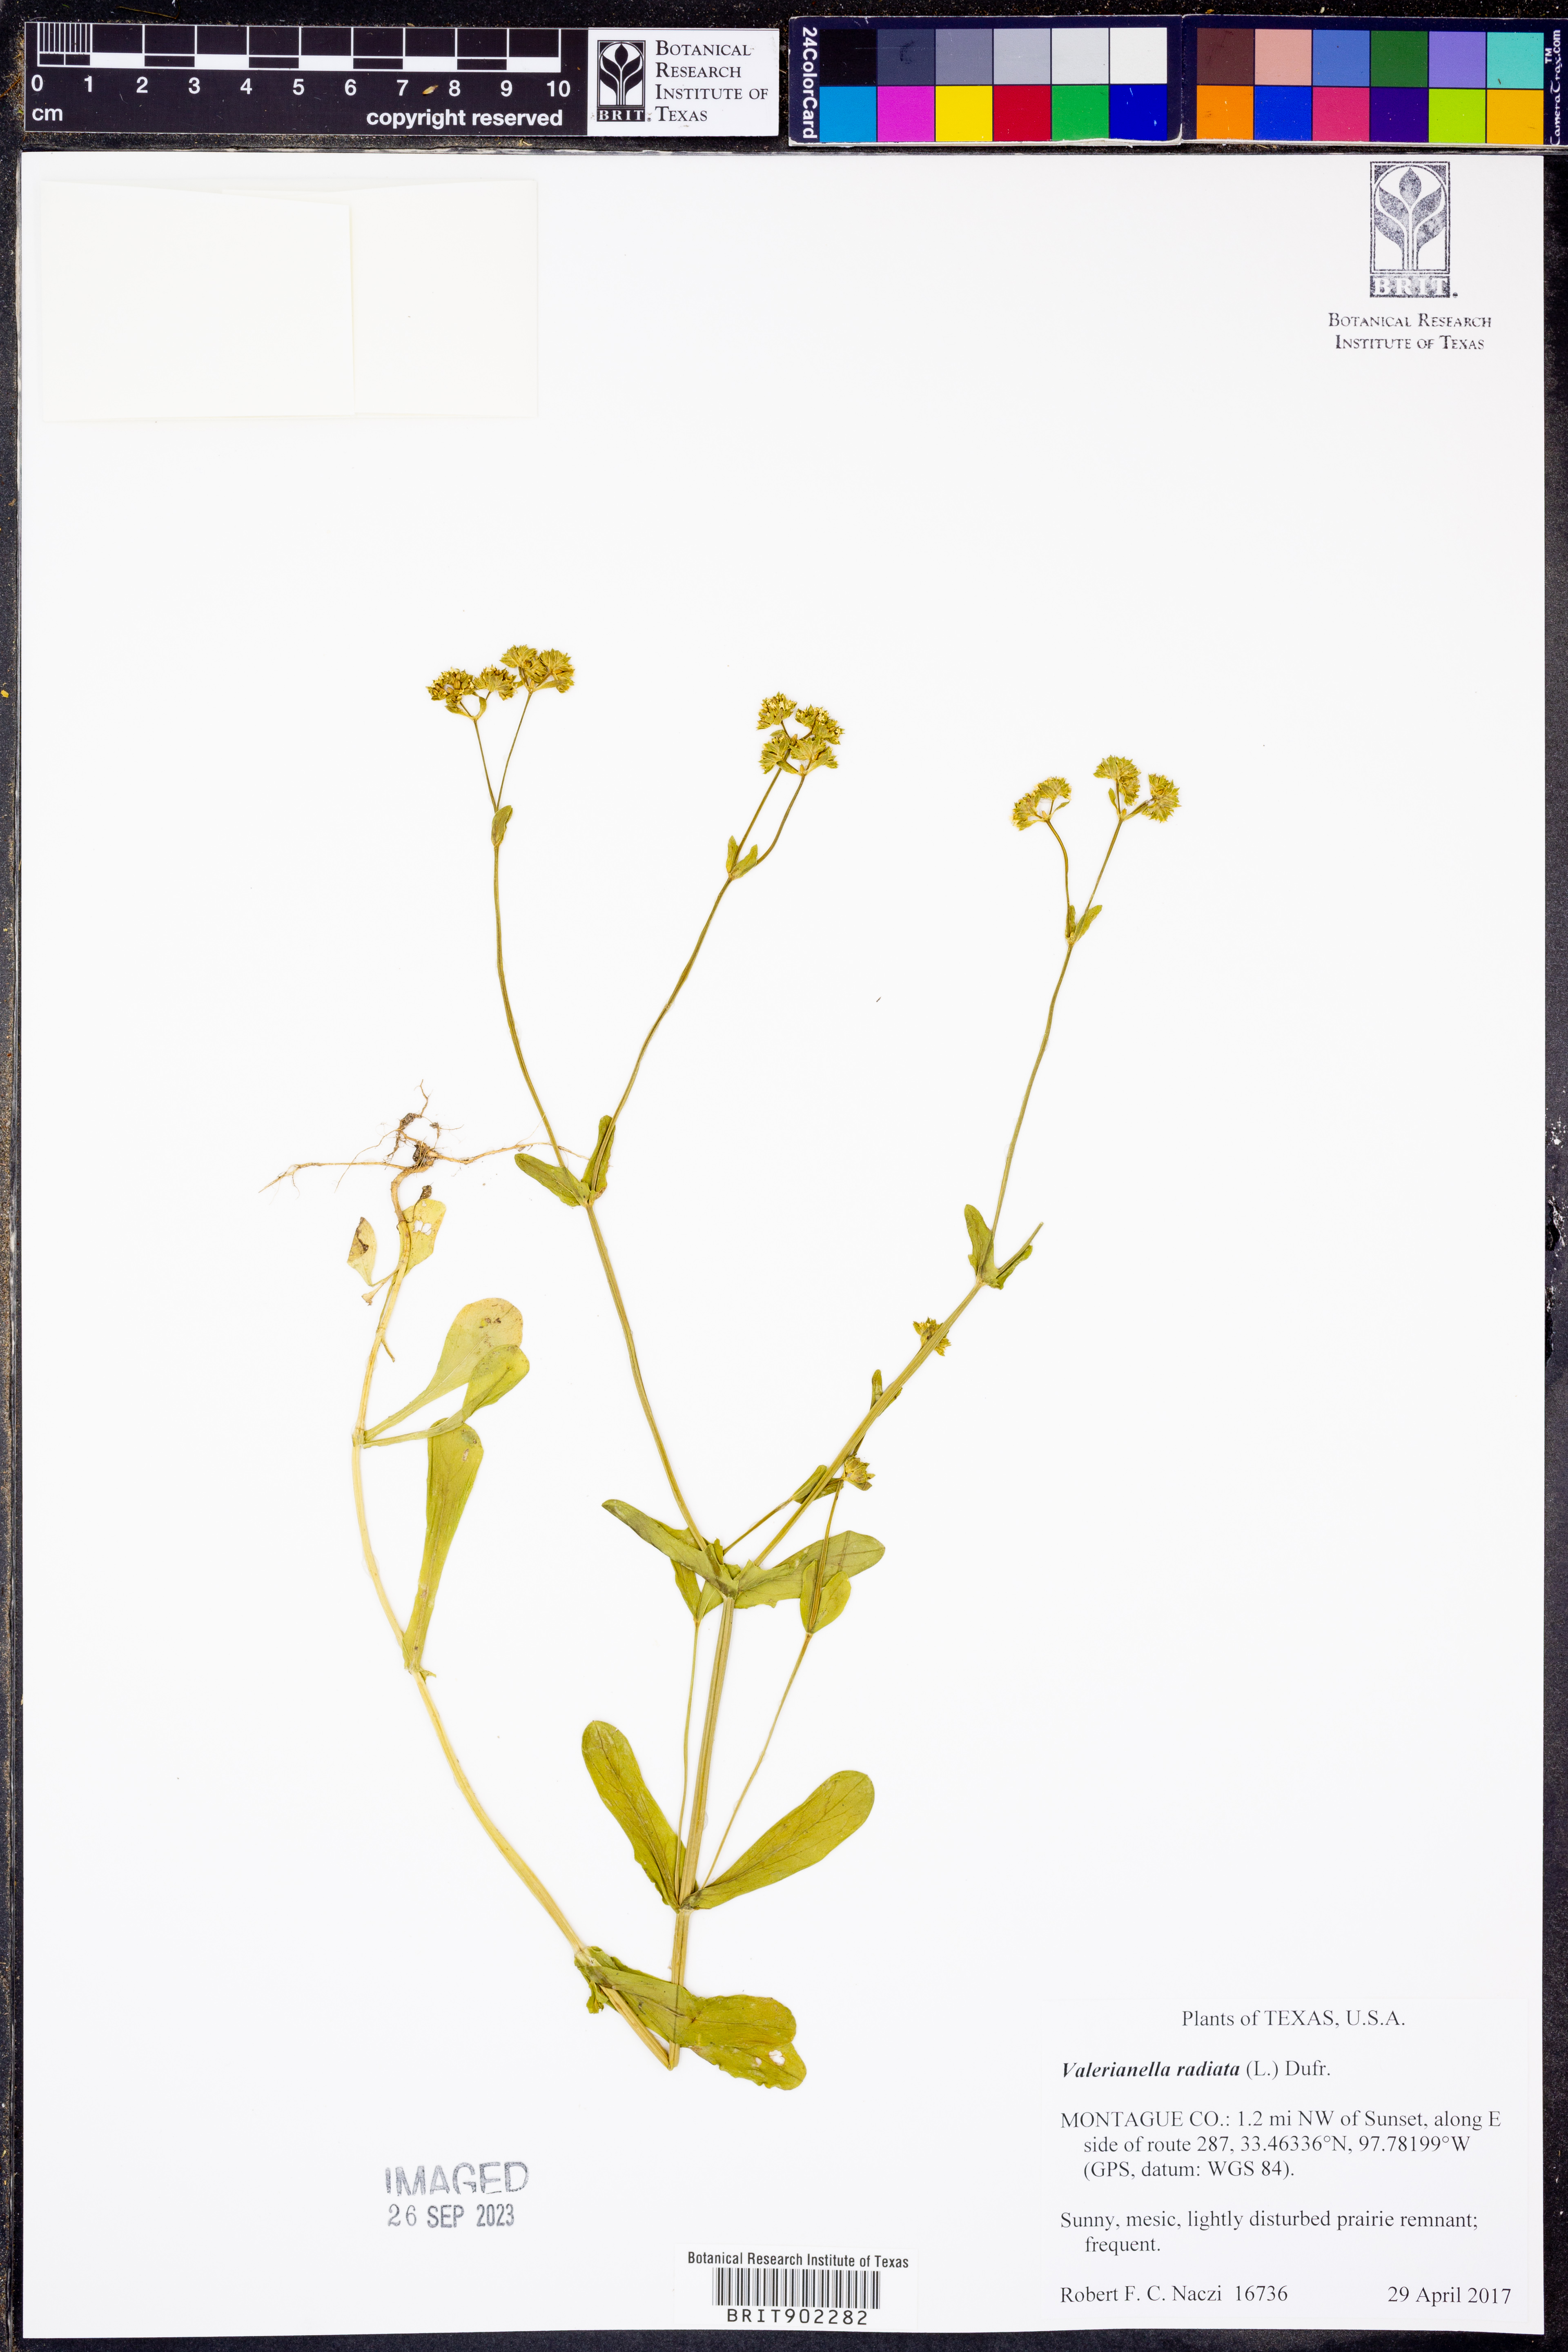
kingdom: Plantae
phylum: Tracheophyta
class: Magnoliopsida
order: Dipsacales
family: Caprifoliaceae
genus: Valerianella
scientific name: Valerianella radiata
